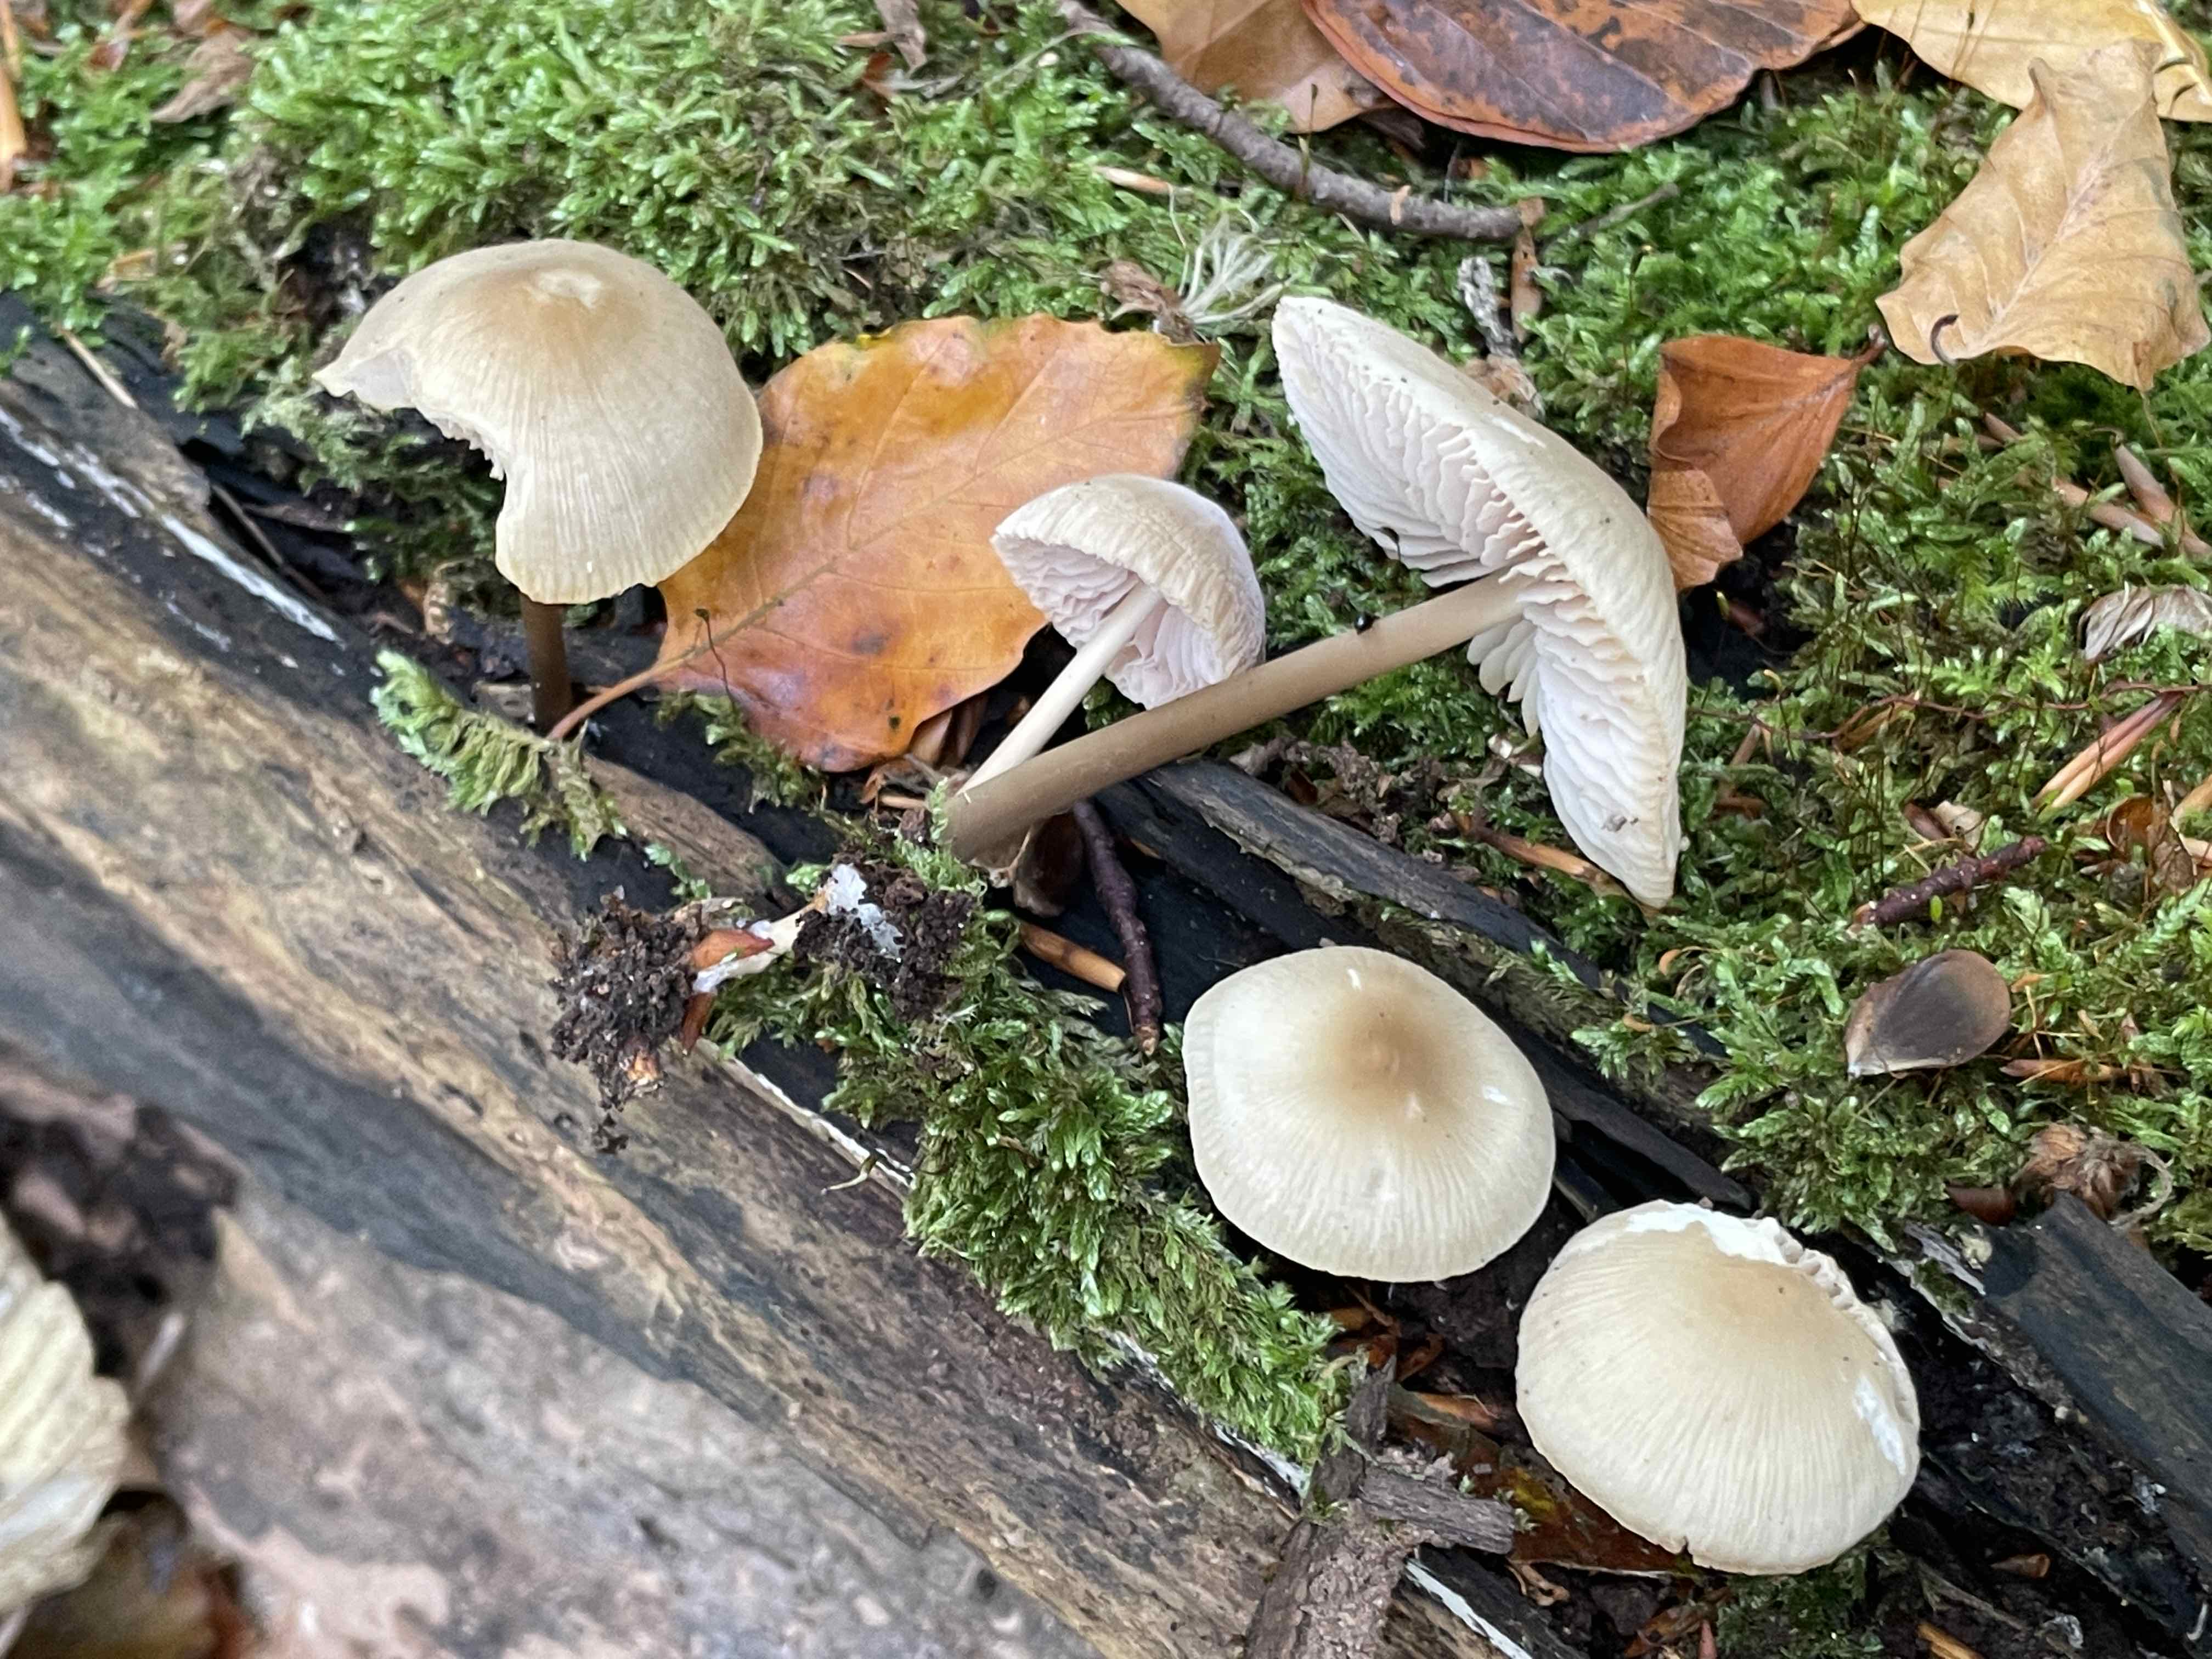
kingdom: Fungi
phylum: Basidiomycota
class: Agaricomycetes
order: Agaricales
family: Mycenaceae
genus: Mycena
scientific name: Mycena galericulata
